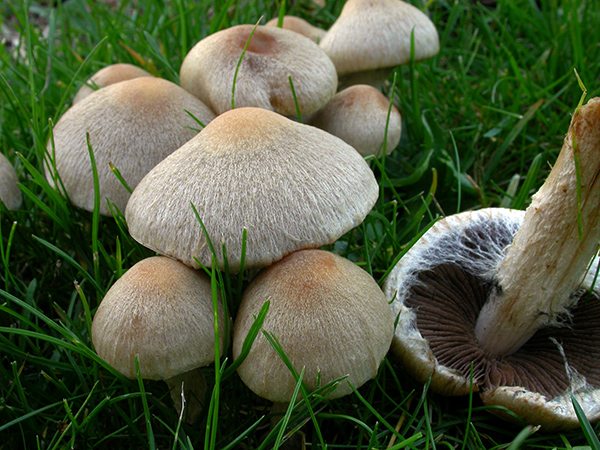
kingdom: Fungi
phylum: Basidiomycota
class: Agaricomycetes
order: Agaricales
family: Psathyrellaceae
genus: Lacrymaria
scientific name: Lacrymaria lacrymabunda
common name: grædende mørkhat
